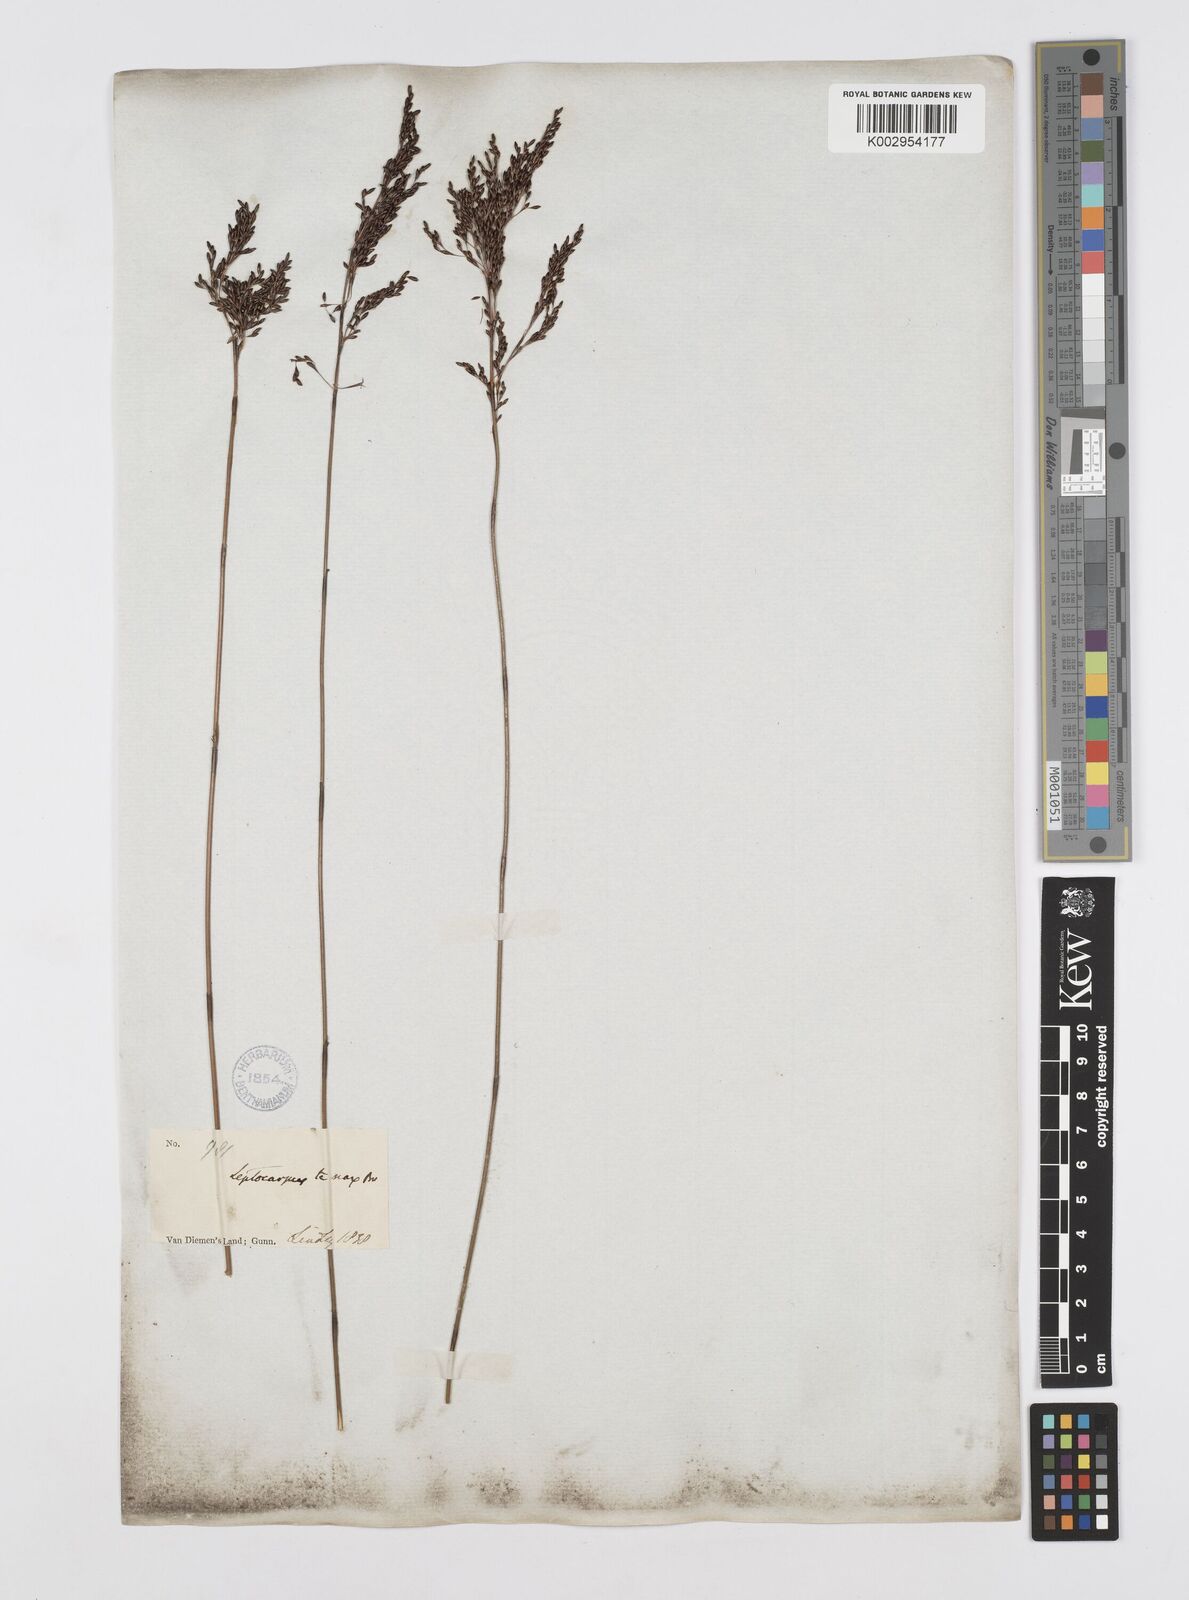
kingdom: Plantae
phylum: Tracheophyta
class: Liliopsida
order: Poales
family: Restionaceae
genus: Leptocarpus
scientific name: Leptocarpus tenax
